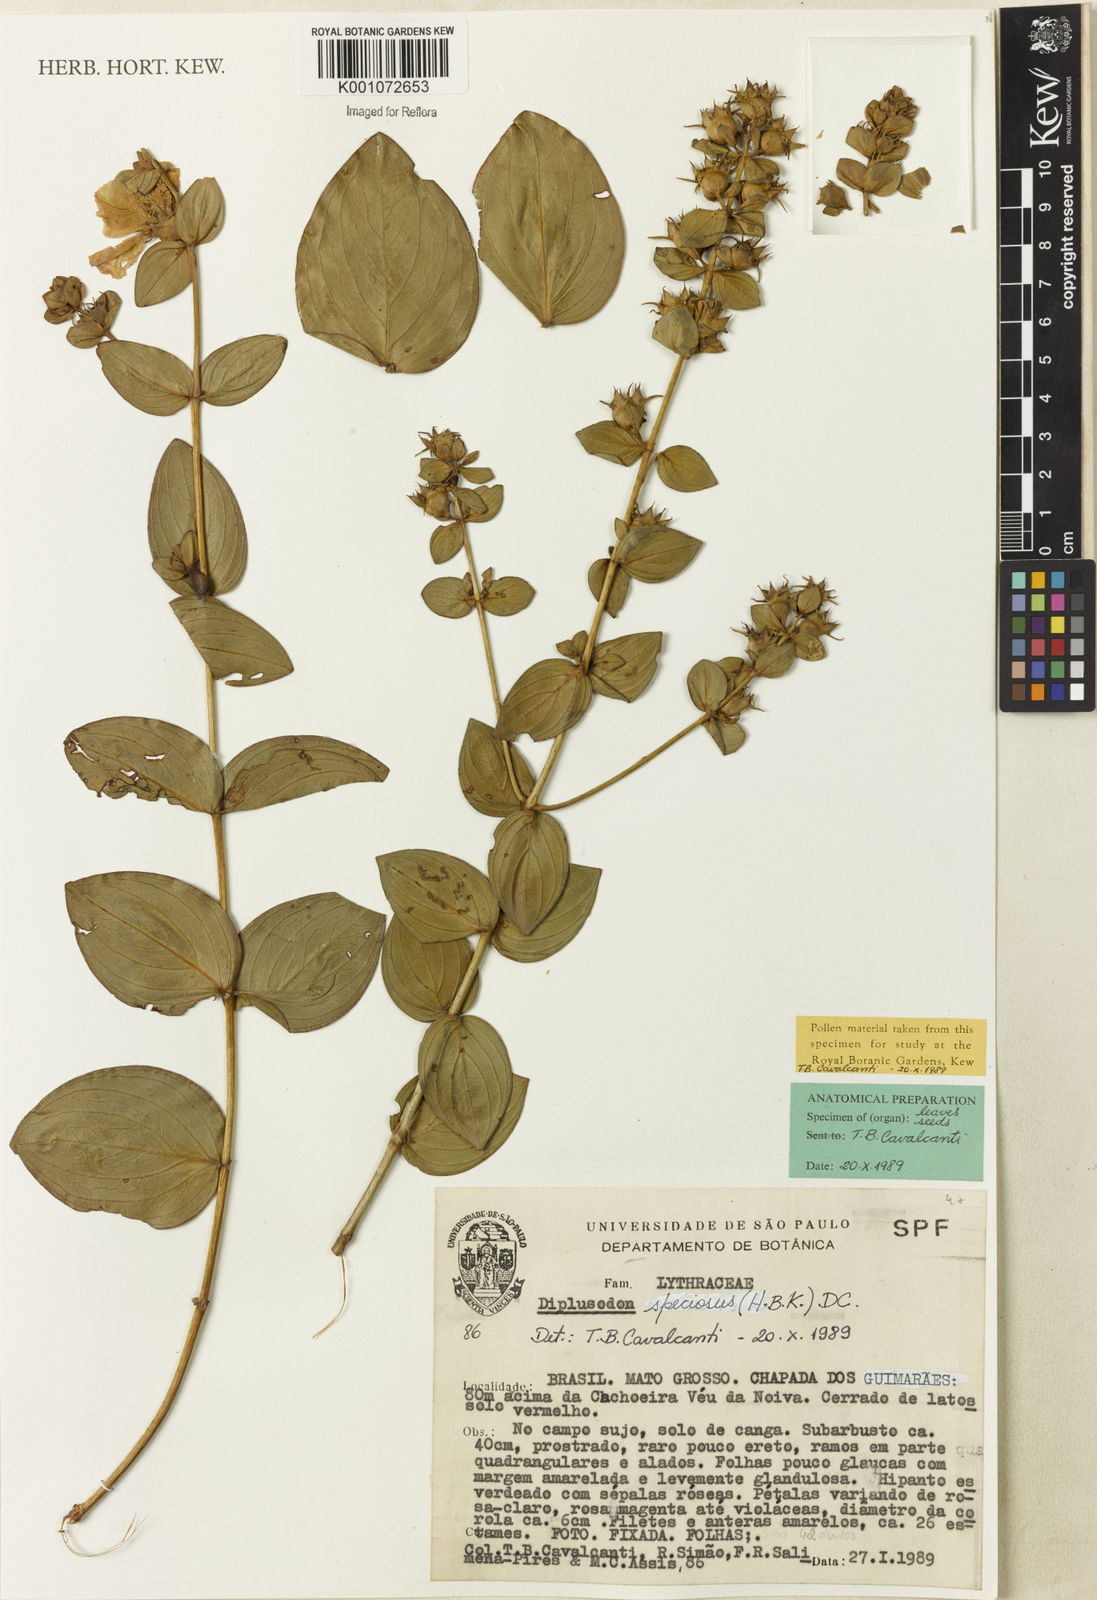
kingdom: Plantae
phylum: Tracheophyta
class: Magnoliopsida
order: Myrtales
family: Lythraceae
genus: Diplusodon
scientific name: Diplusodon speciosus
